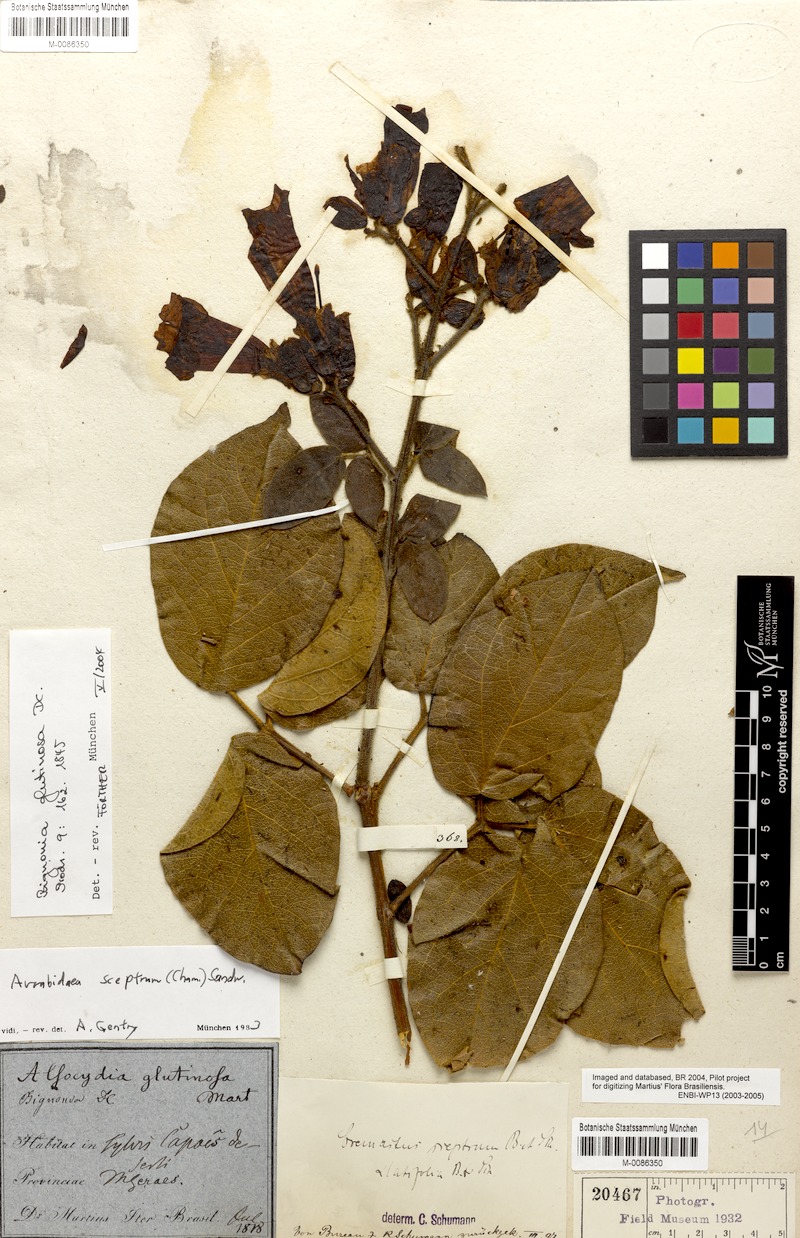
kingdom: Plantae
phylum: Tracheophyta
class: Magnoliopsida
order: Lamiales
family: Bignoniaceae
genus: Cuspidaria
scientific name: Cuspidaria sceptrum
